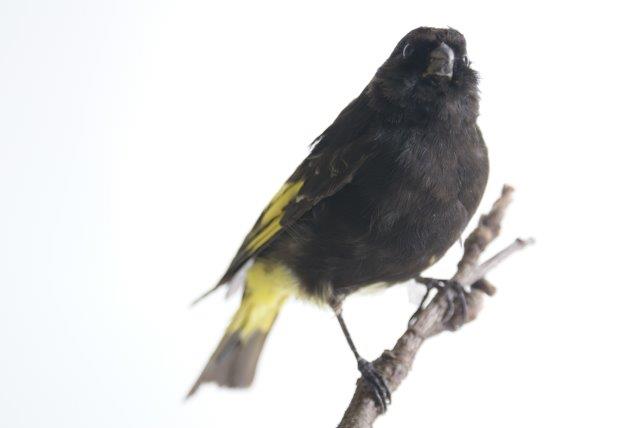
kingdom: Animalia
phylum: Chordata
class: Aves
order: Passeriformes
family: Fringillidae
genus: Spinus
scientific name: Spinus atratus
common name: Black siskin
